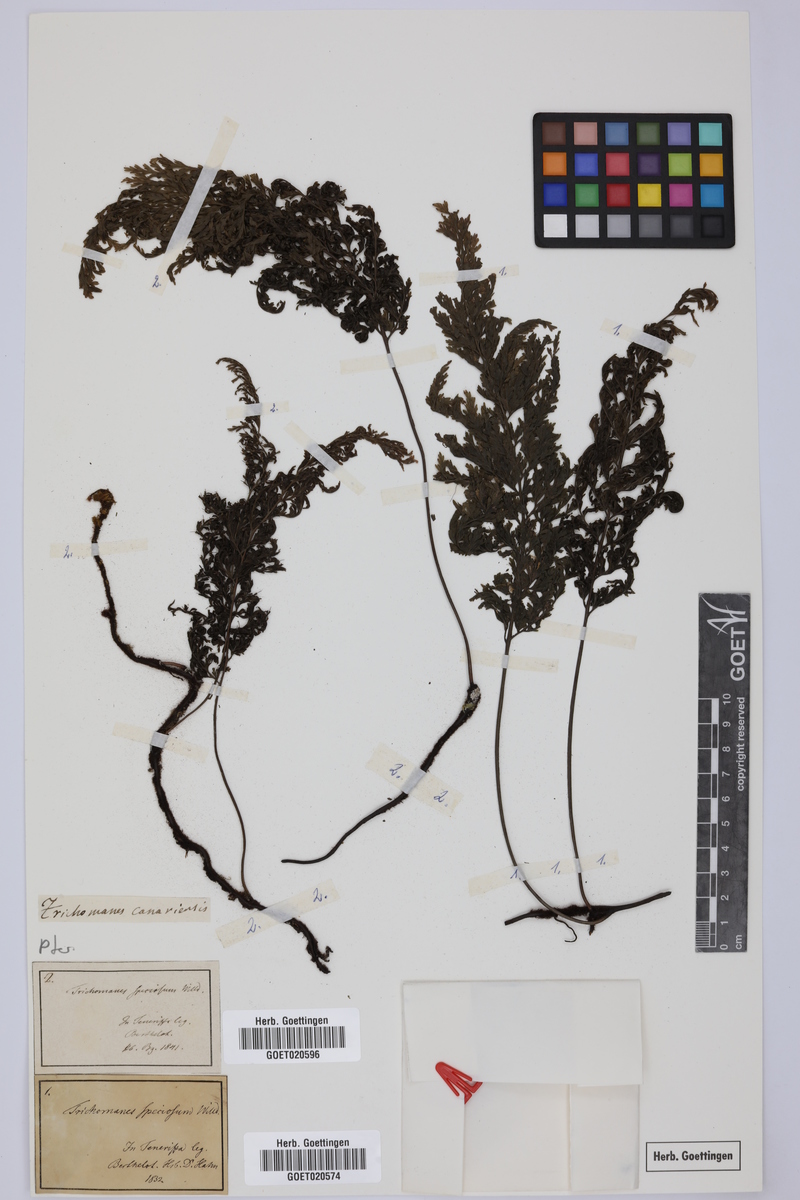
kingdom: Plantae
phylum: Tracheophyta
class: Polypodiopsida
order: Hymenophyllales
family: Hymenophyllaceae
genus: Vandenboschia
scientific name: Vandenboschia speciosa
